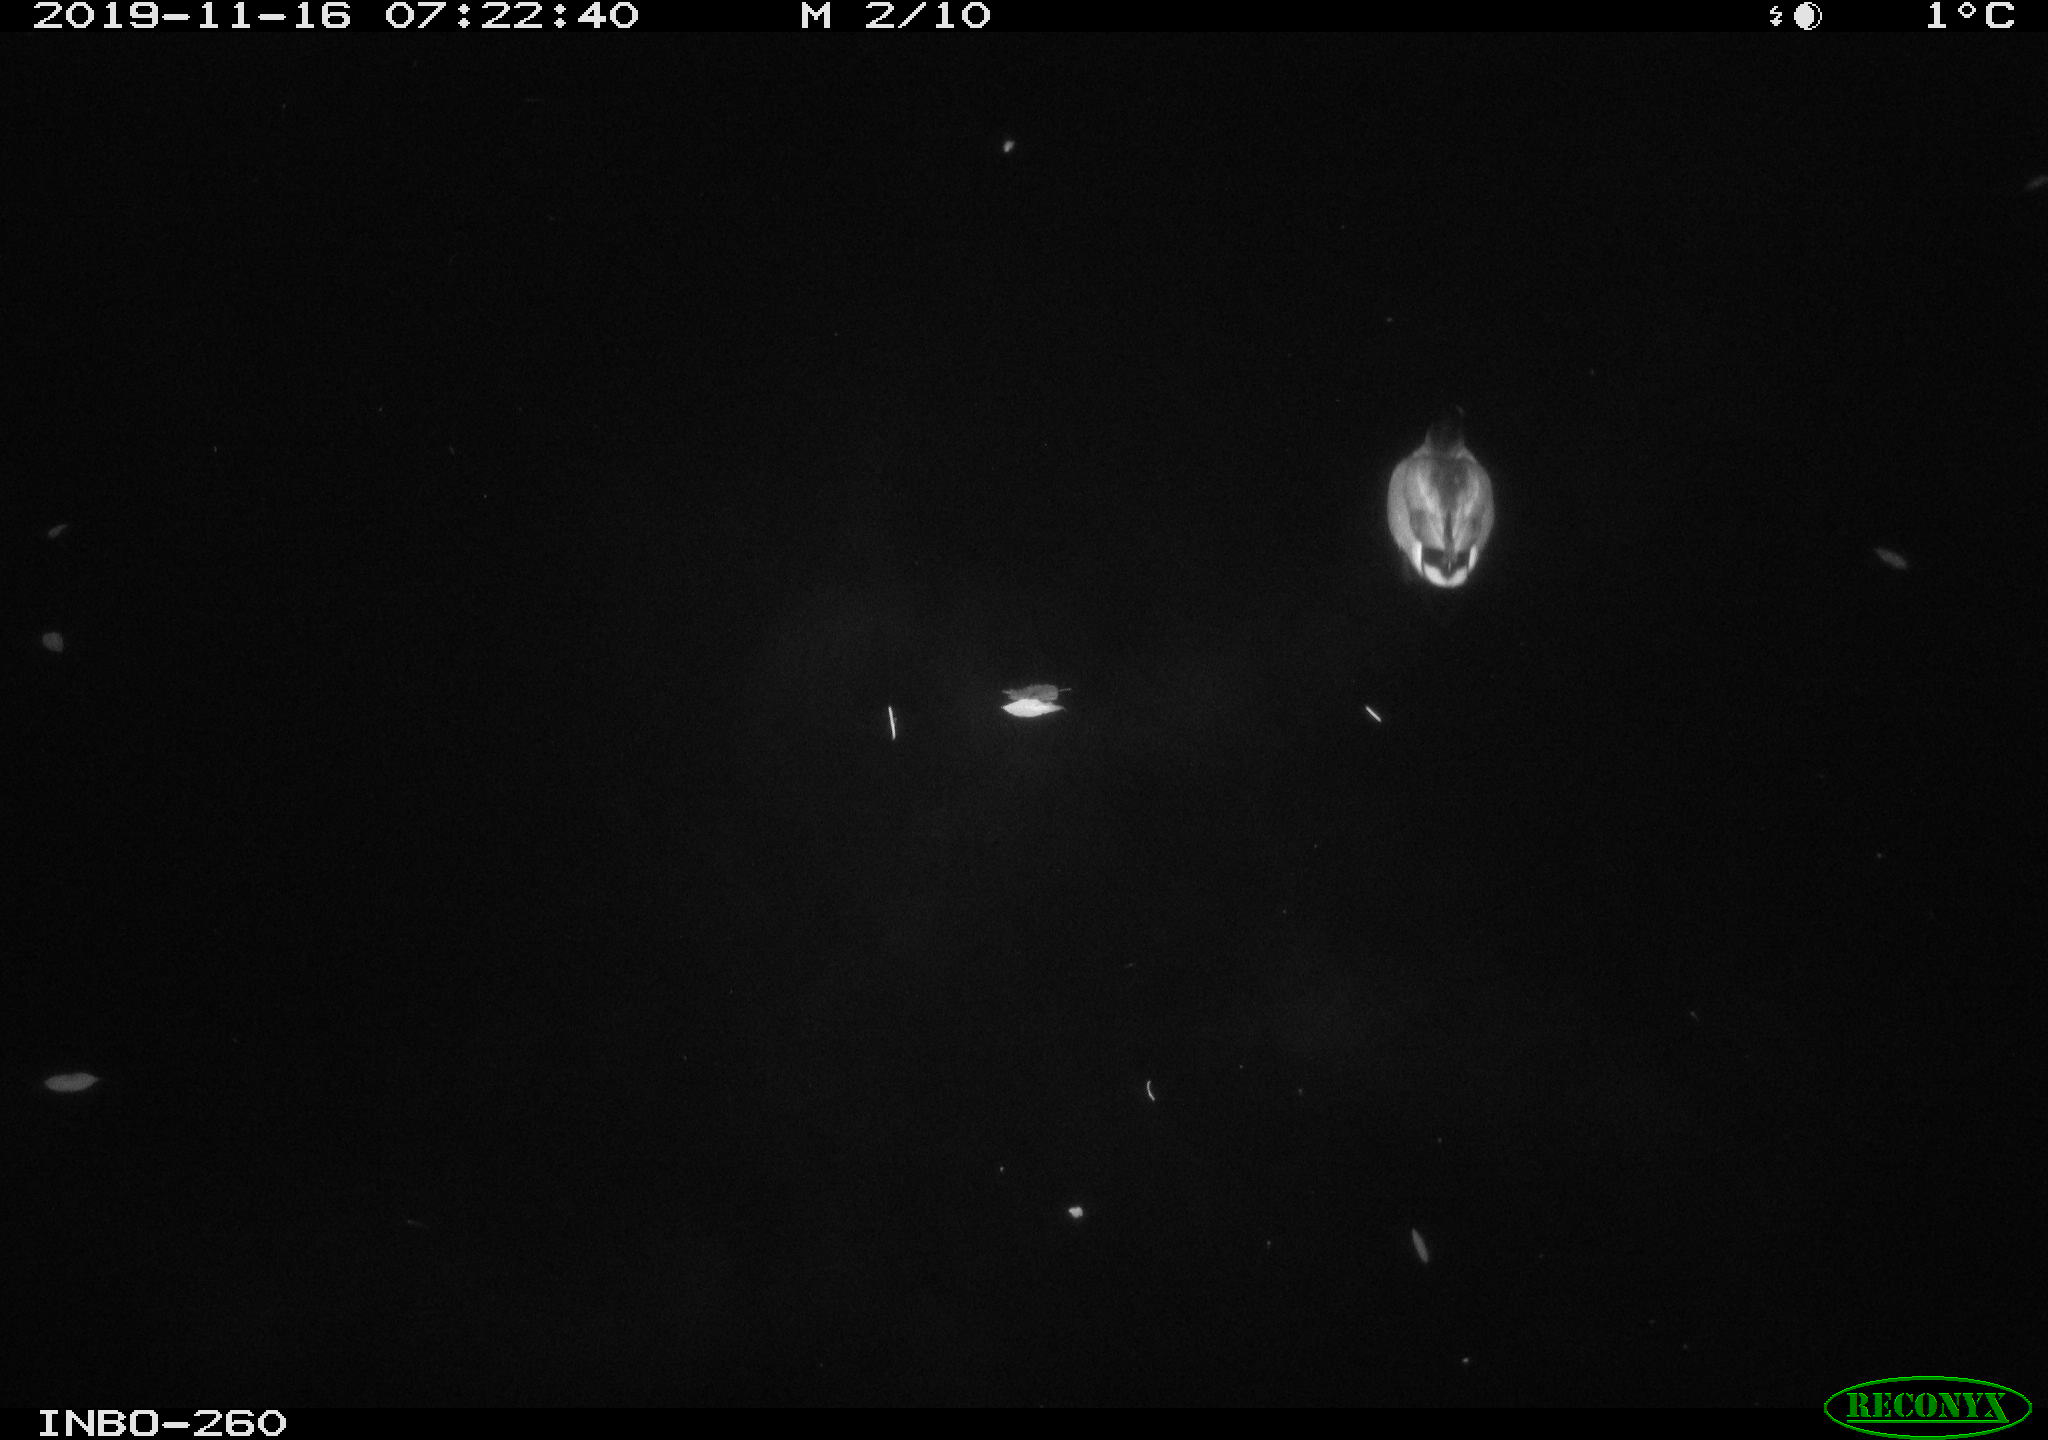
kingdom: Animalia
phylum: Chordata
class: Aves
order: Anseriformes
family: Anatidae
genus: Anas
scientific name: Anas platyrhynchos
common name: Mallard
